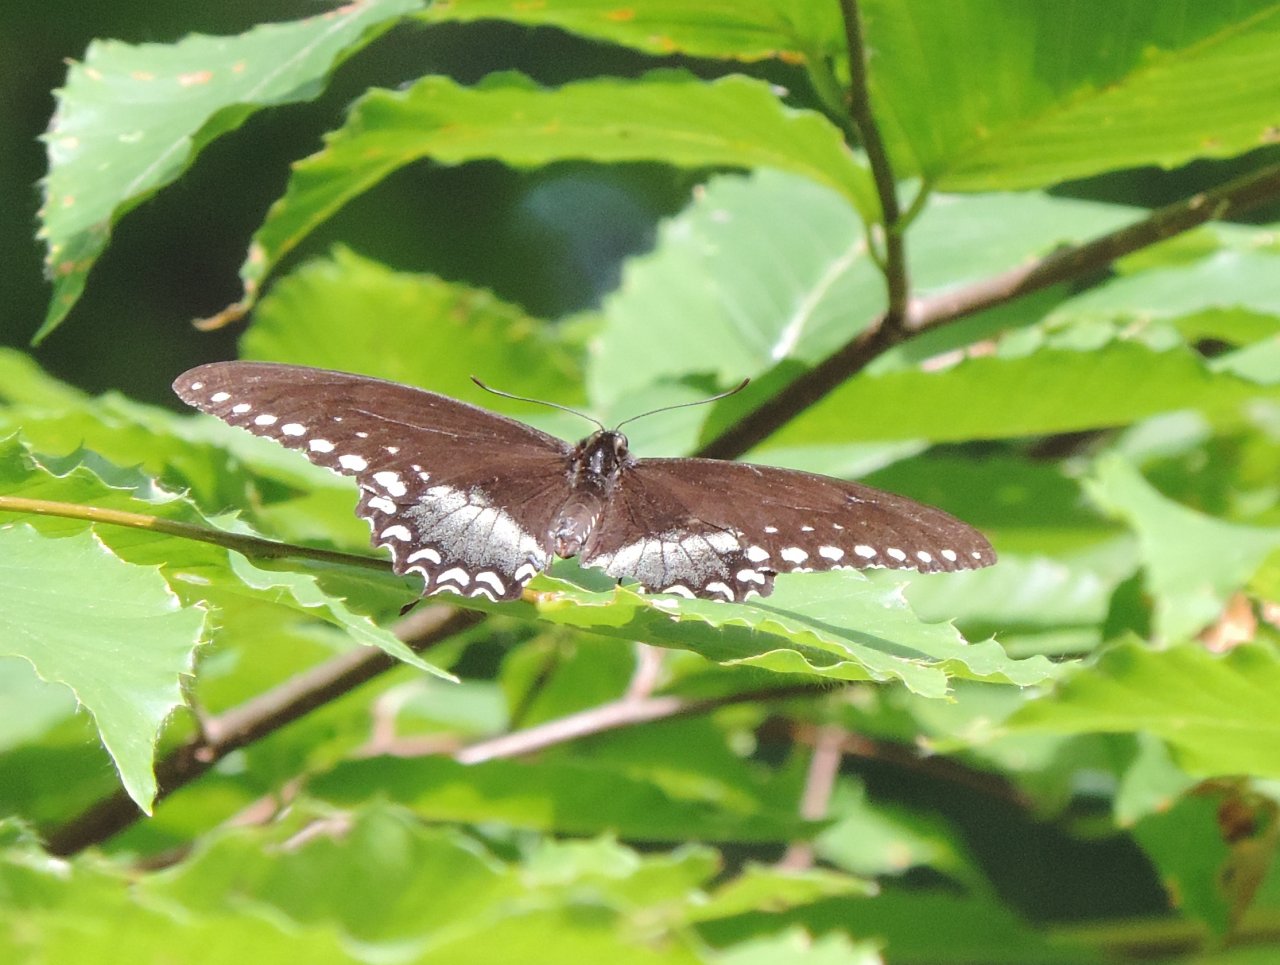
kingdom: Animalia
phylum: Arthropoda
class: Insecta
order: Lepidoptera
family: Papilionidae
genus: Pterourus
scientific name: Pterourus troilus
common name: Spicebush Swallowtail
